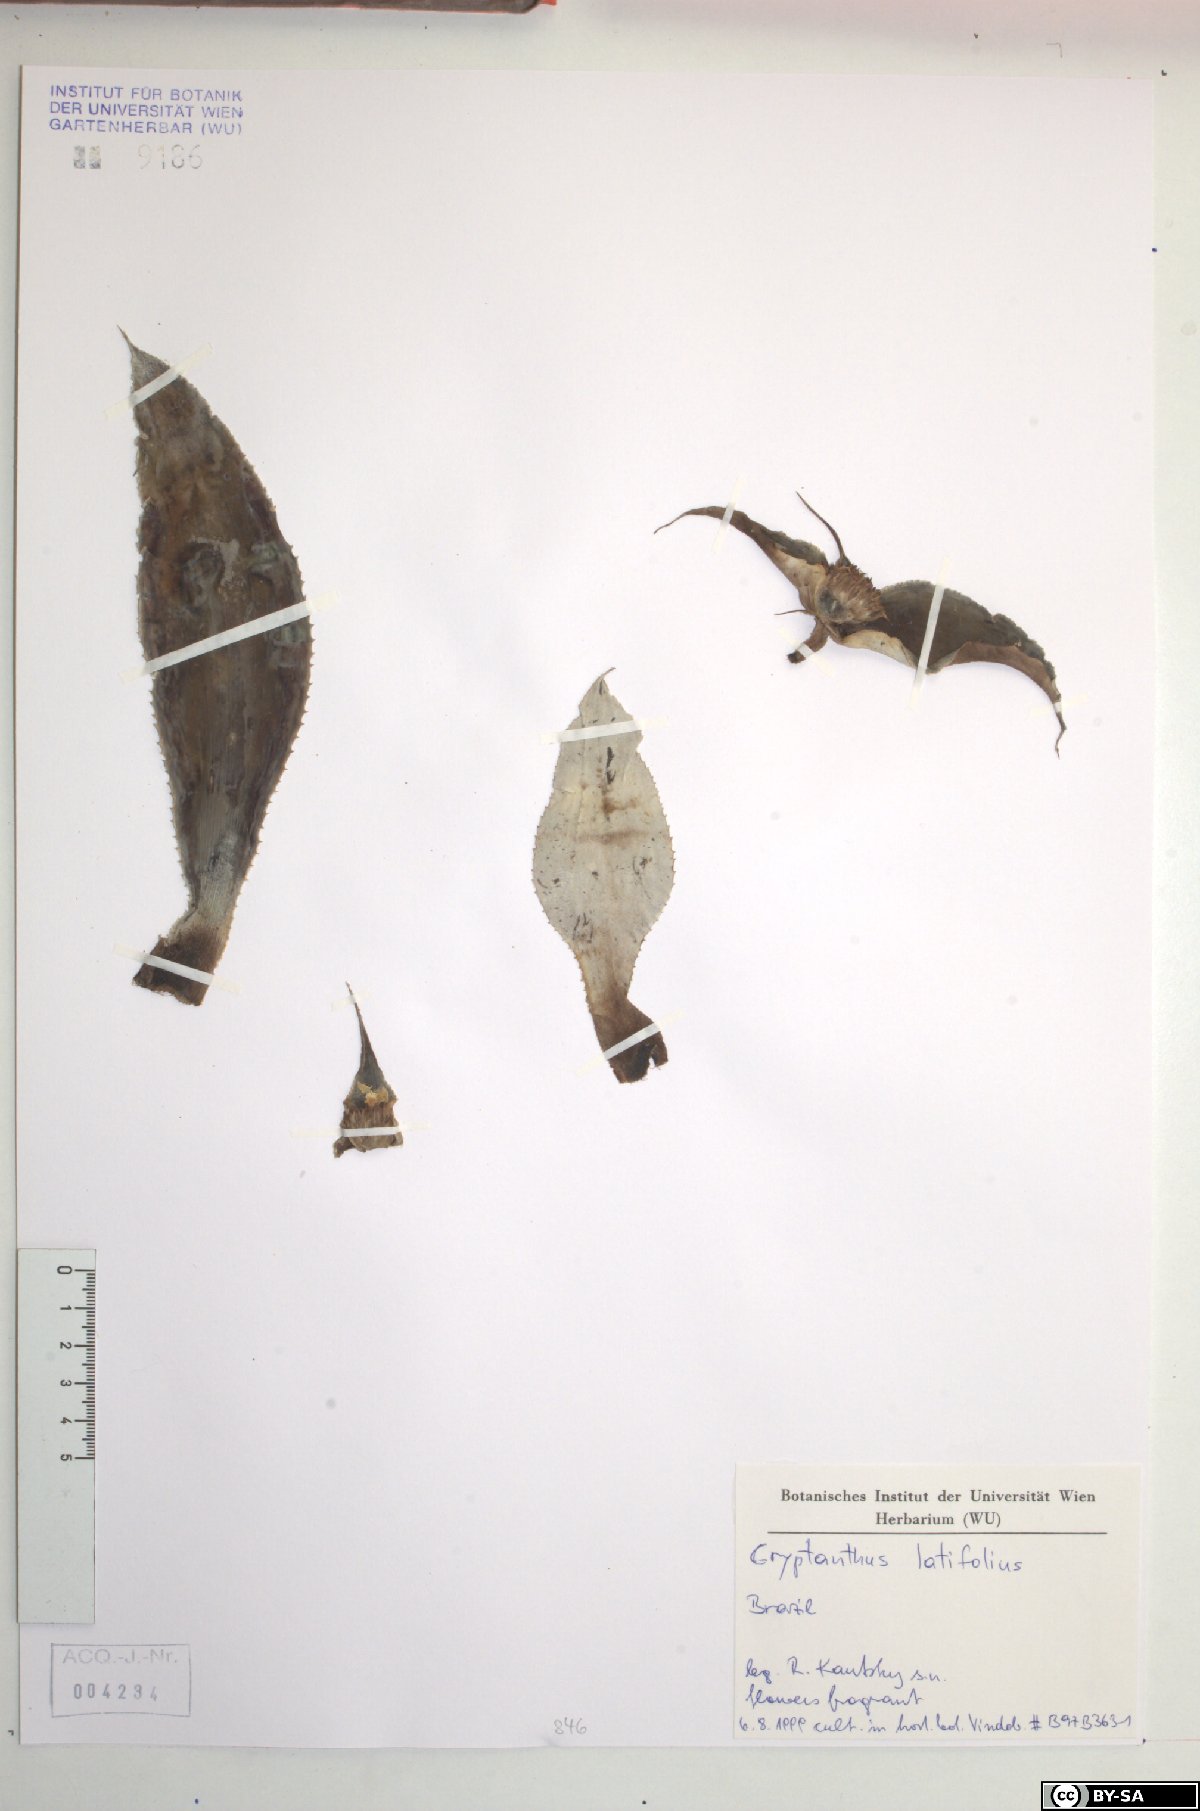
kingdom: Plantae
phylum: Tracheophyta
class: Liliopsida
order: Poales
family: Bromeliaceae
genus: Rokautskyia
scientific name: Rokautskyia latifolia
